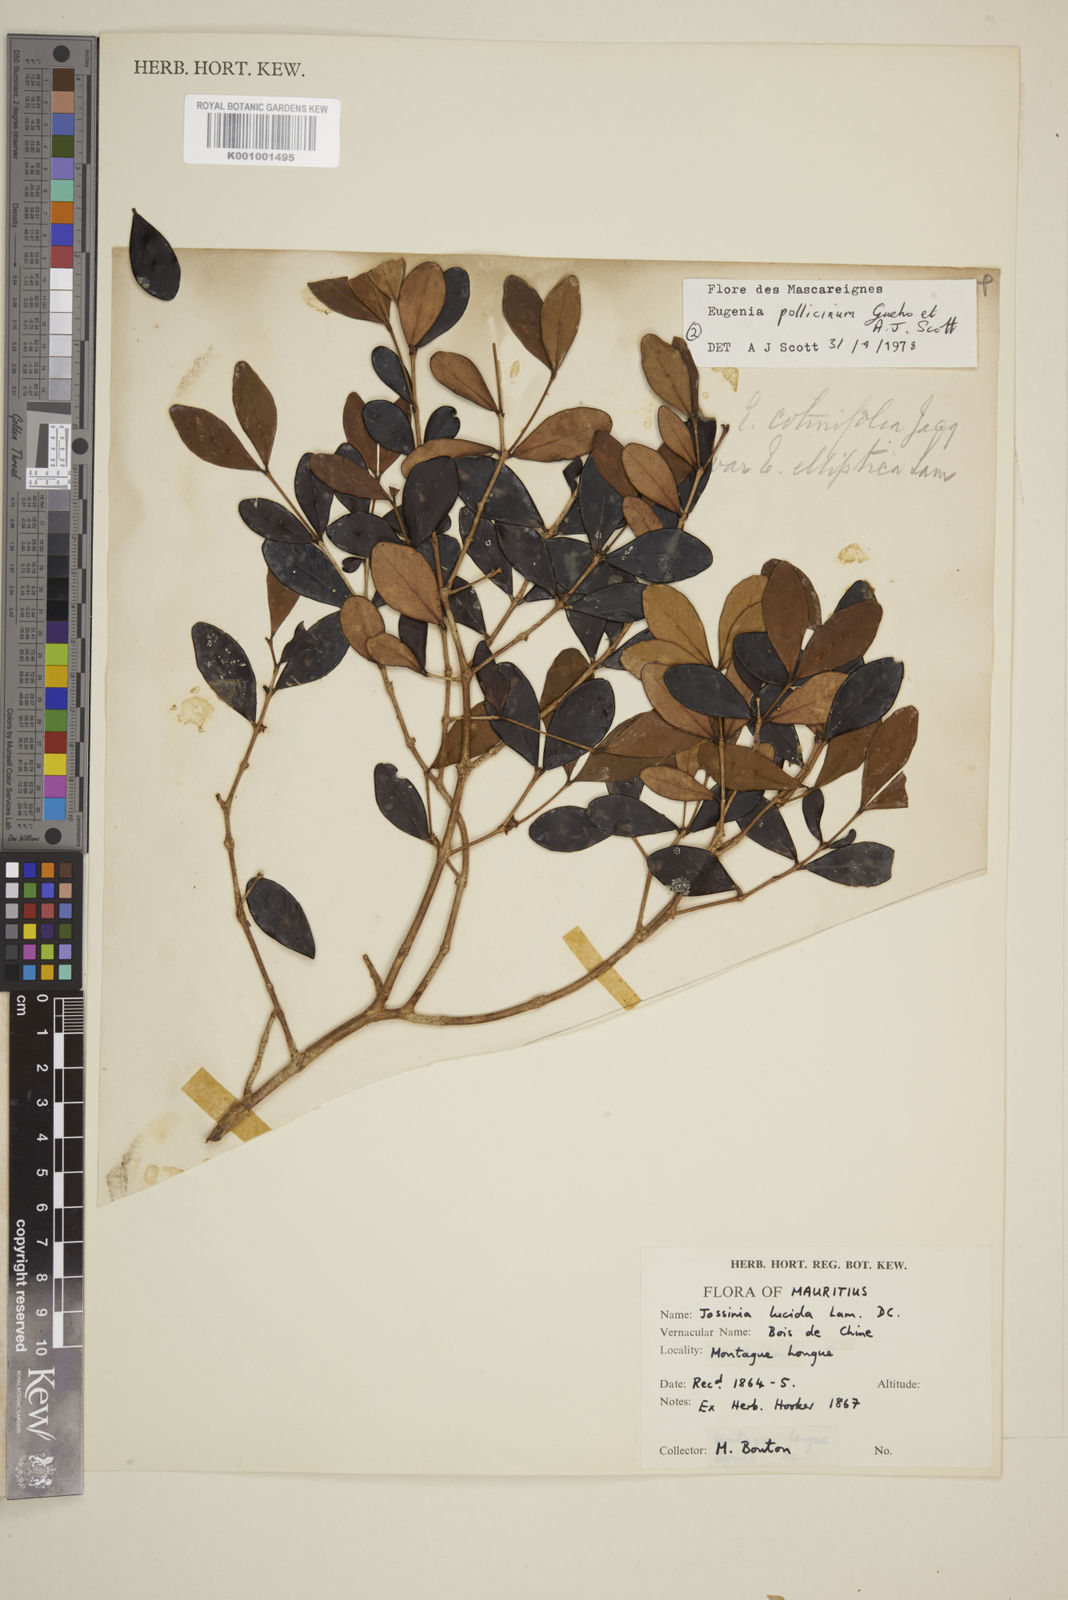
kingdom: Plantae
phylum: Tracheophyta
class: Magnoliopsida
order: Myrtales
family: Myrtaceae
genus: Eugenia
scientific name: Eugenia
